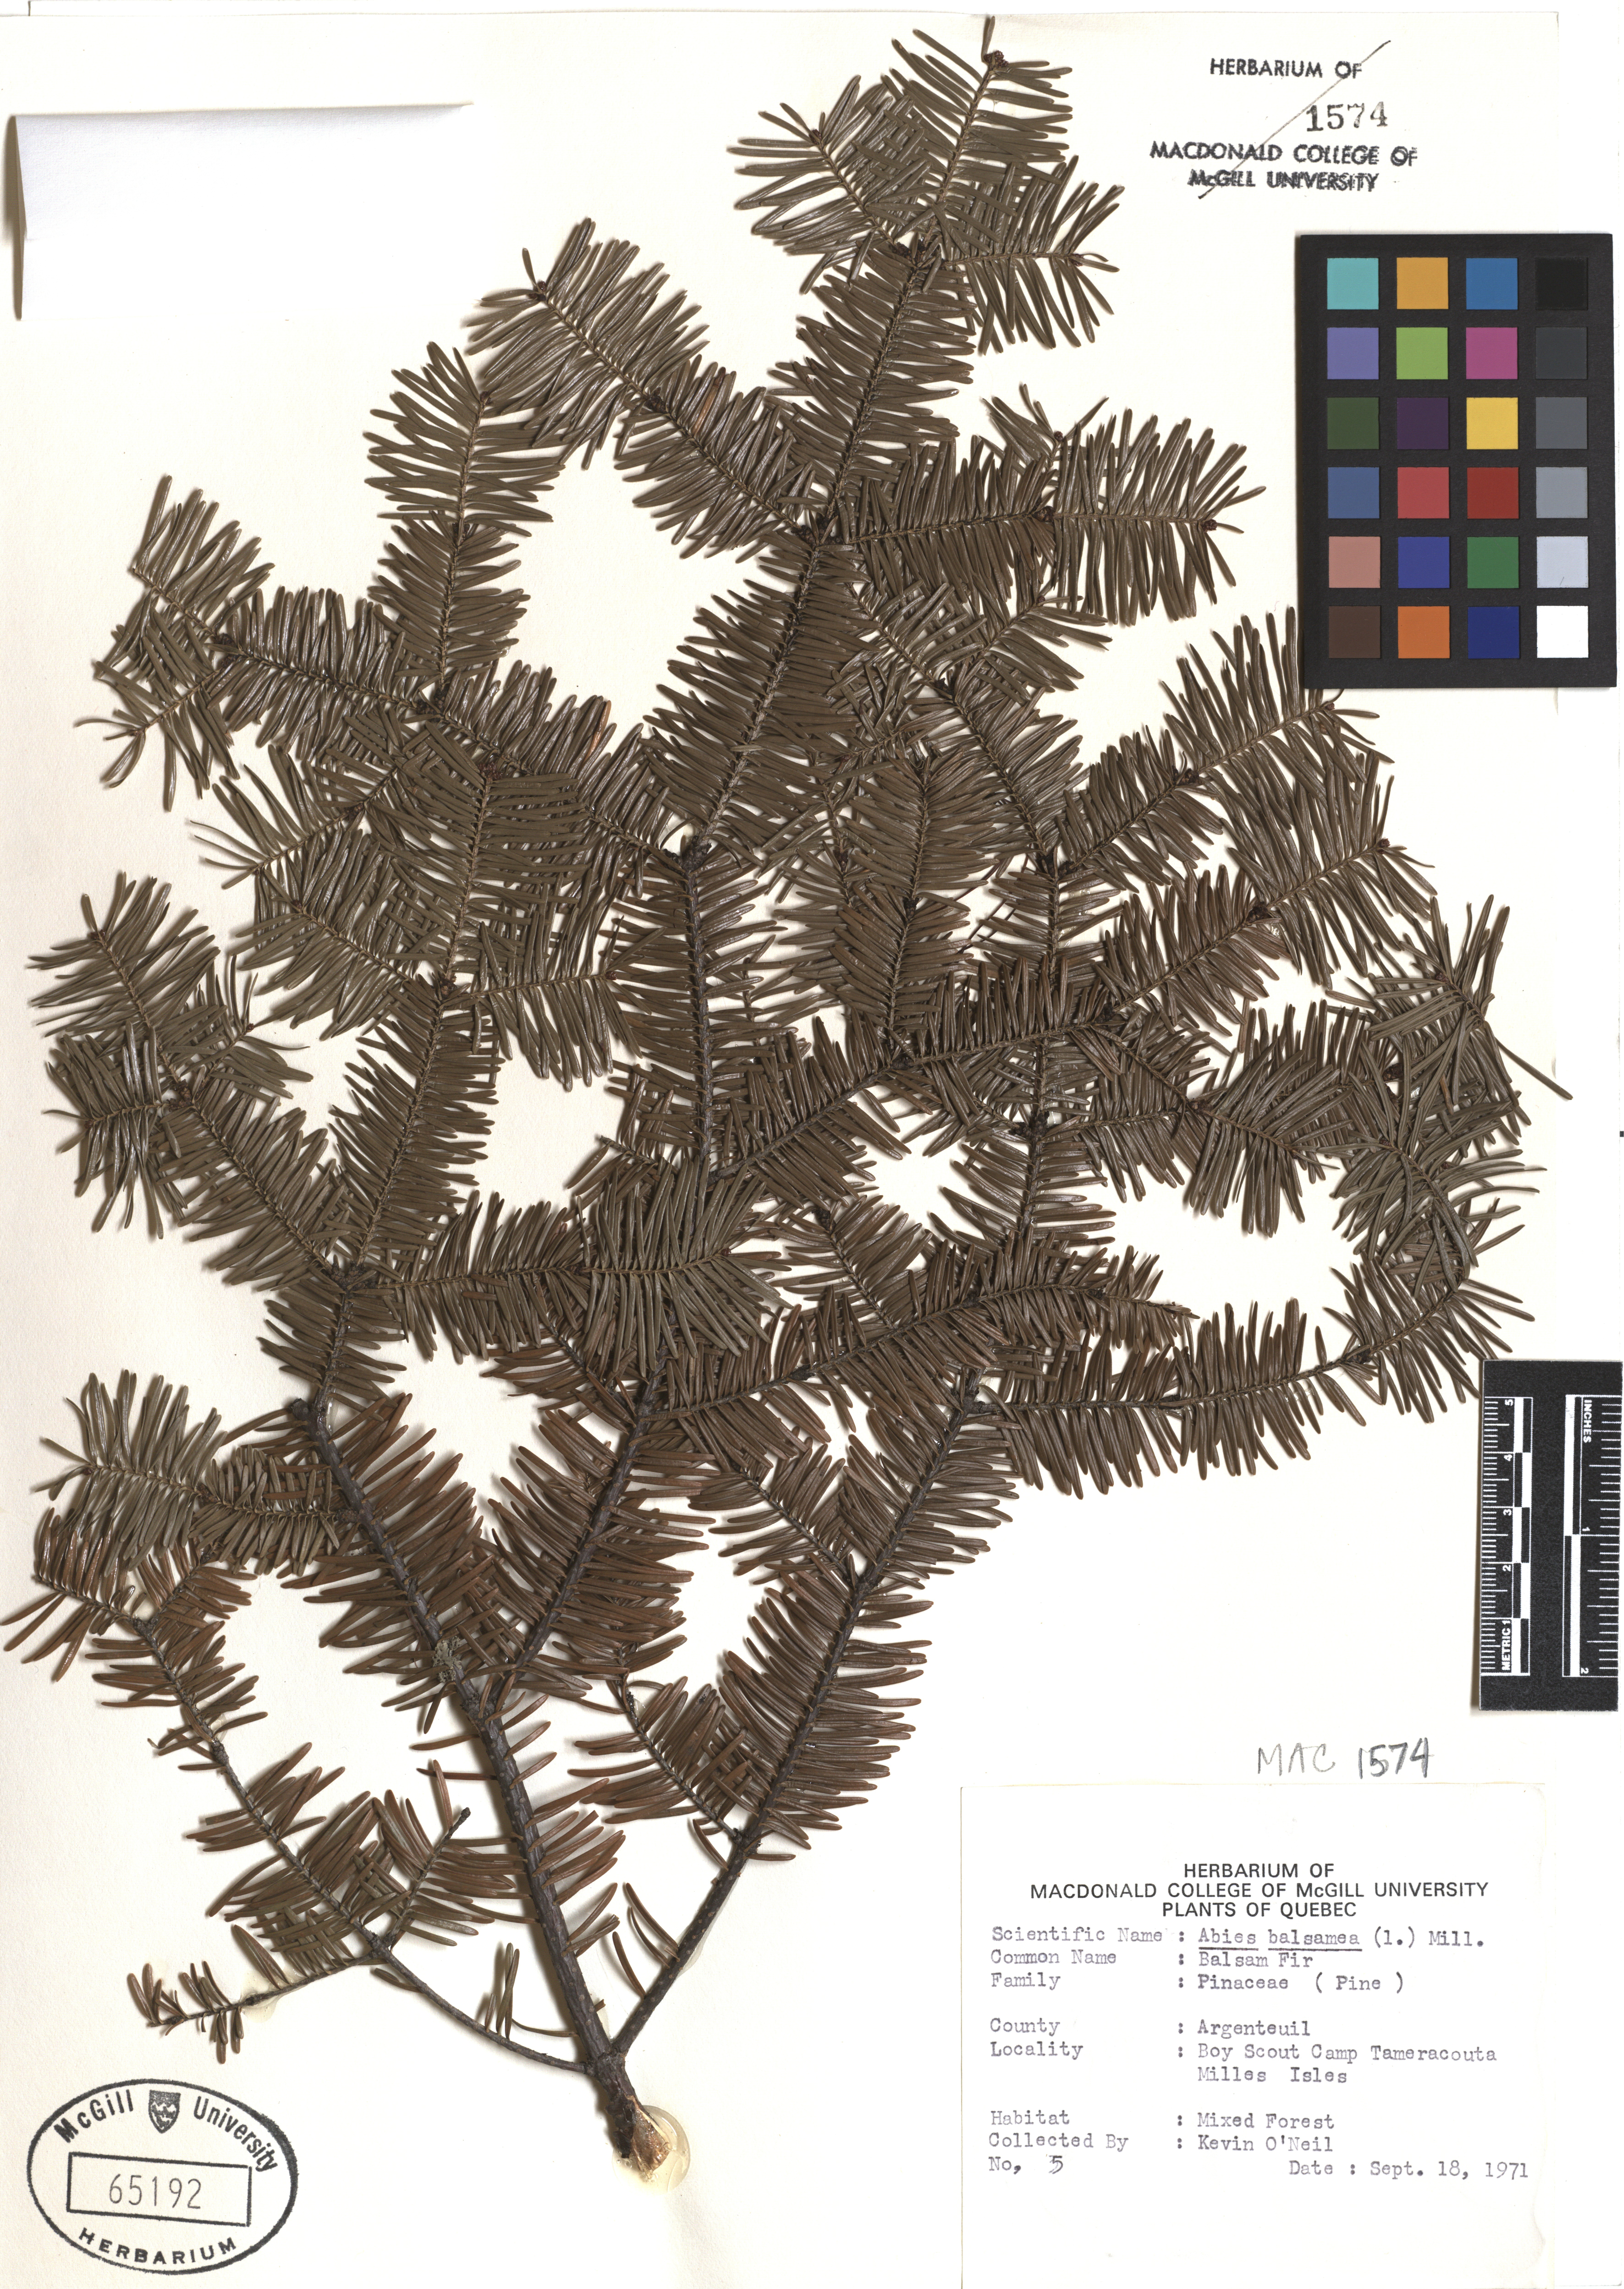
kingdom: Plantae
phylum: Tracheophyta
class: Pinopsida
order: Pinales
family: Pinaceae
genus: Abies
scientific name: Abies balsamea
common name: Balsam fir
